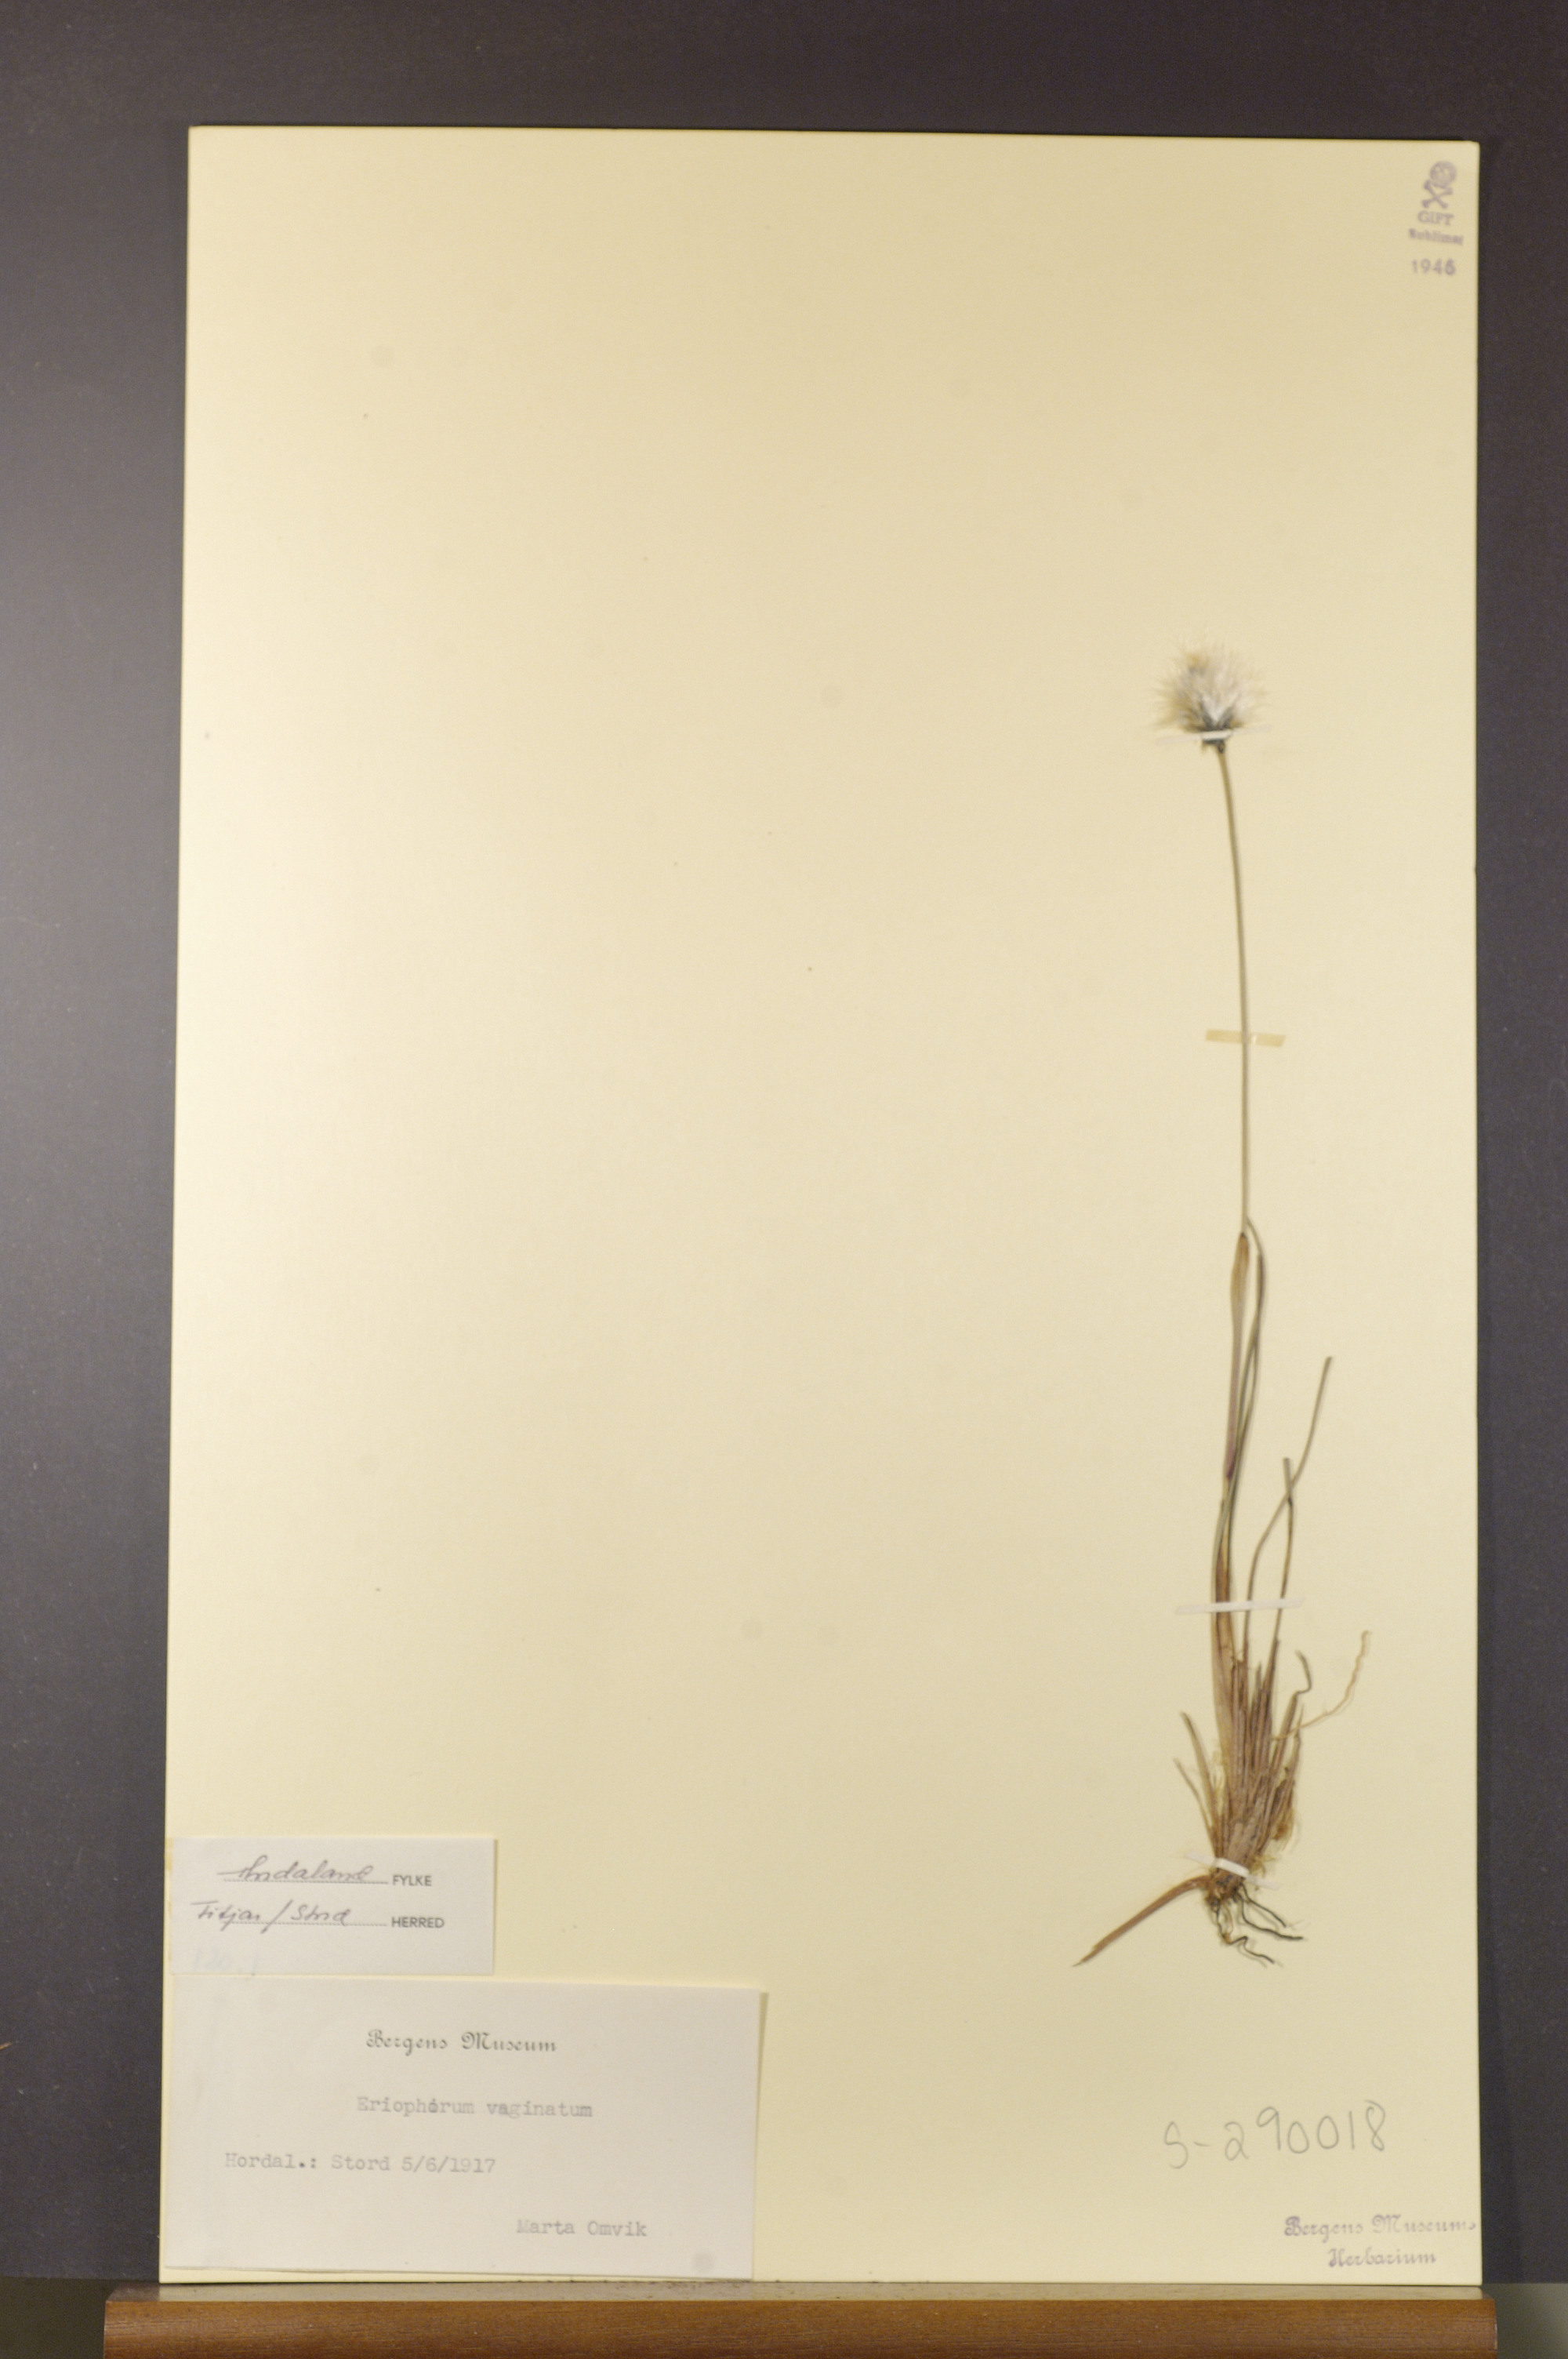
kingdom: Plantae
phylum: Tracheophyta
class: Liliopsida
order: Poales
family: Cyperaceae
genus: Eriophorum
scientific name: Eriophorum vaginatum
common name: Hare's-tail cottongrass
